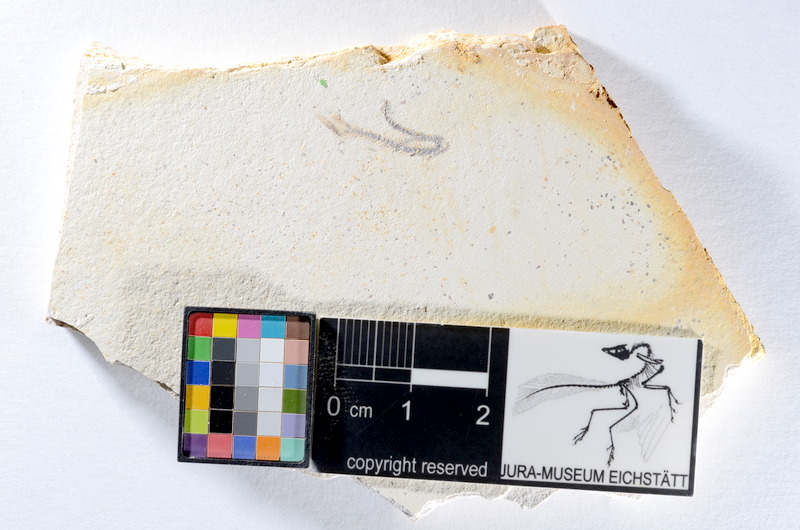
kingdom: Animalia
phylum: Chordata
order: Salmoniformes
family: Orthogonikleithridae
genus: Orthogonikleithrus
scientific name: Orthogonikleithrus hoelli
